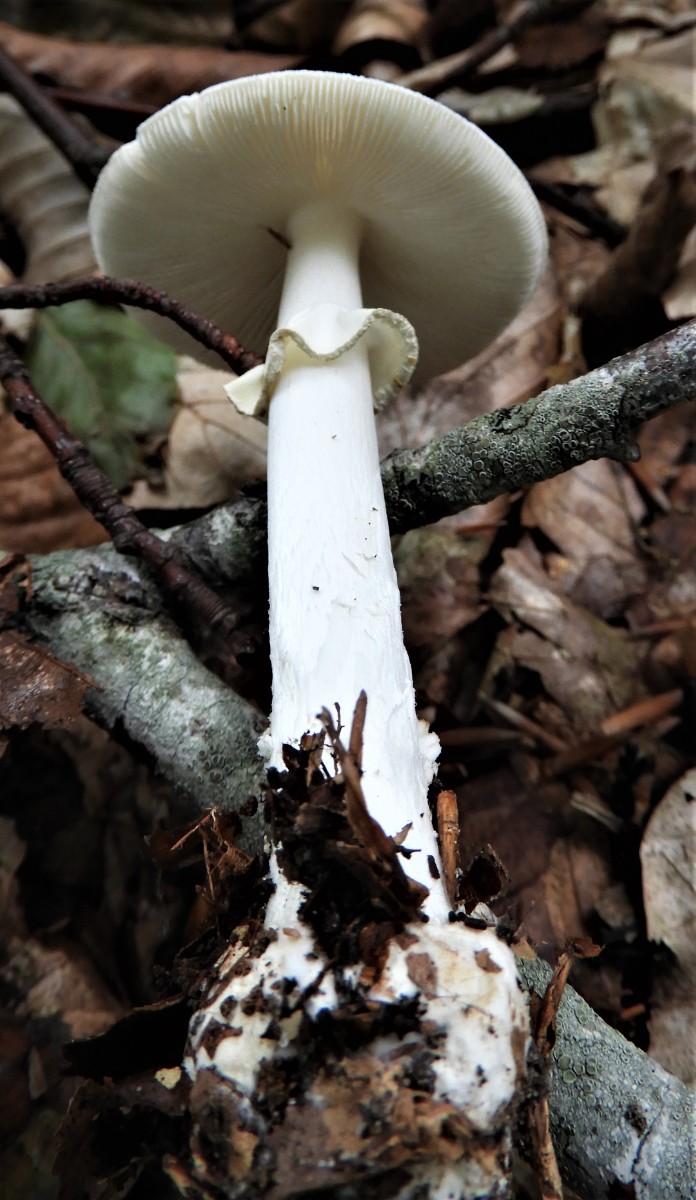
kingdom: Fungi
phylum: Basidiomycota
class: Agaricomycetes
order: Agaricales
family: Amanitaceae
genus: Amanita
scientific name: Amanita citrina
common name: False death-cap
